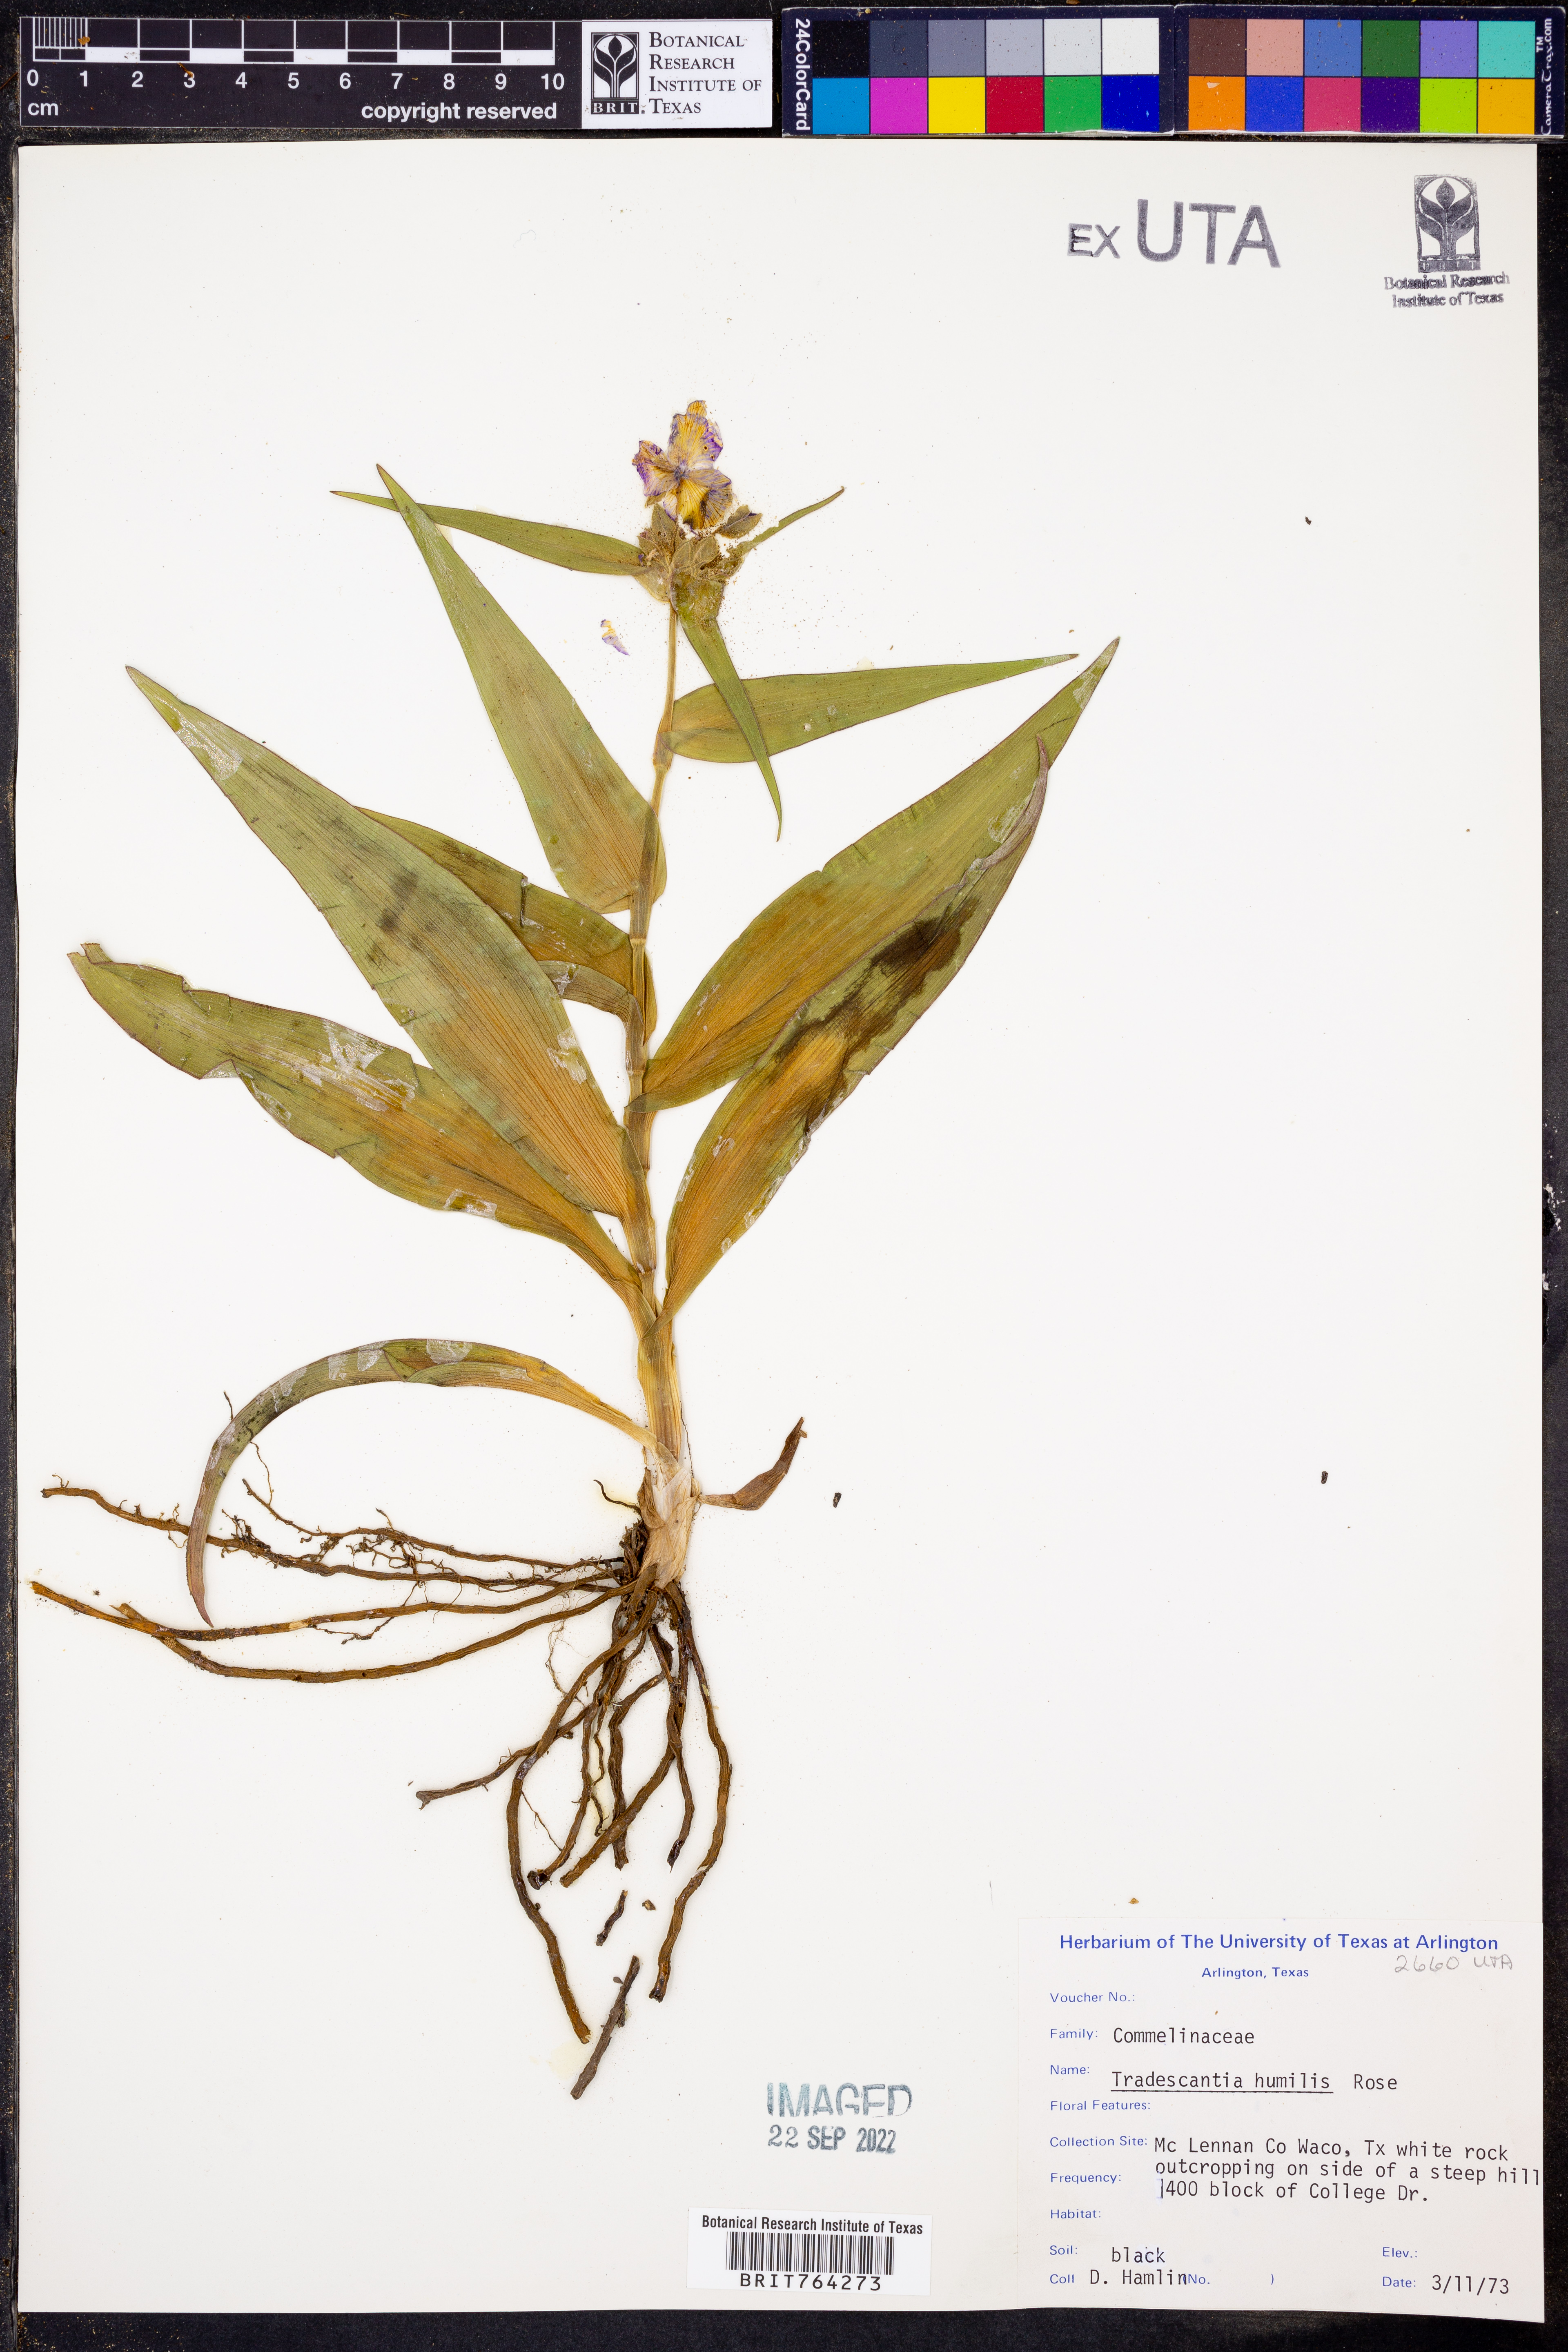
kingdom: Plantae
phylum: Tracheophyta
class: Liliopsida
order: Commelinales
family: Commelinaceae
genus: Tradescantia
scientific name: Tradescantia humilis
